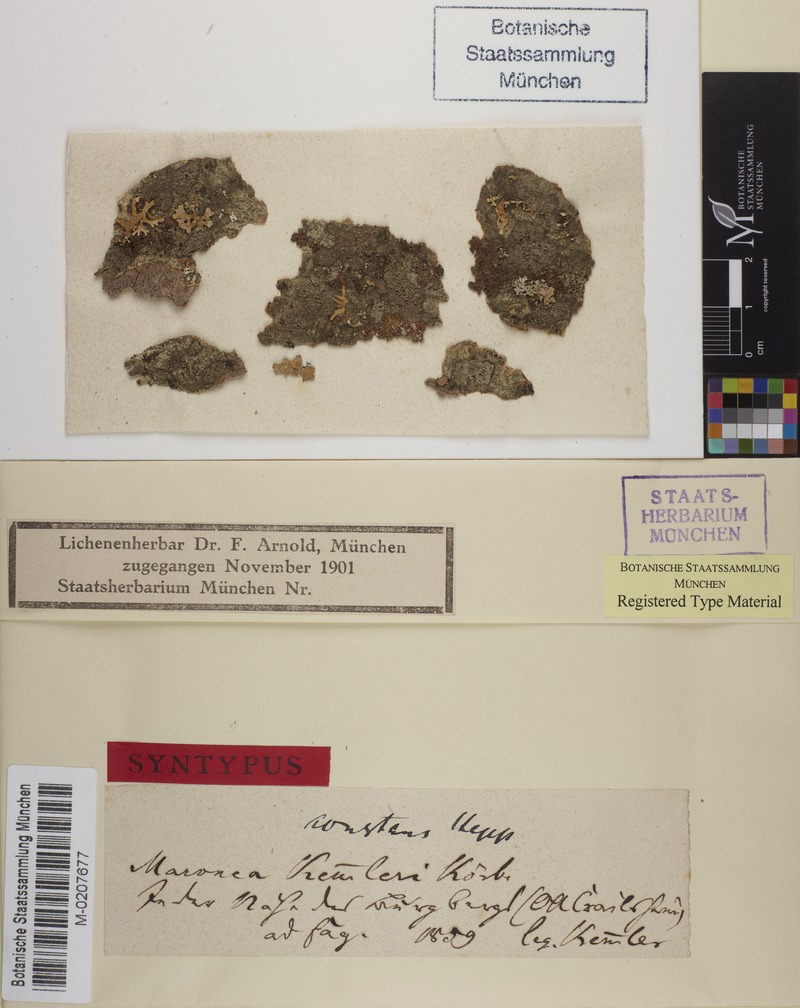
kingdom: Fungi
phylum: Ascomycota
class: Lecanoromycetes
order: Umbilicariales
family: Fuscideaceae
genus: Maronea
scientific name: Maronea constans
